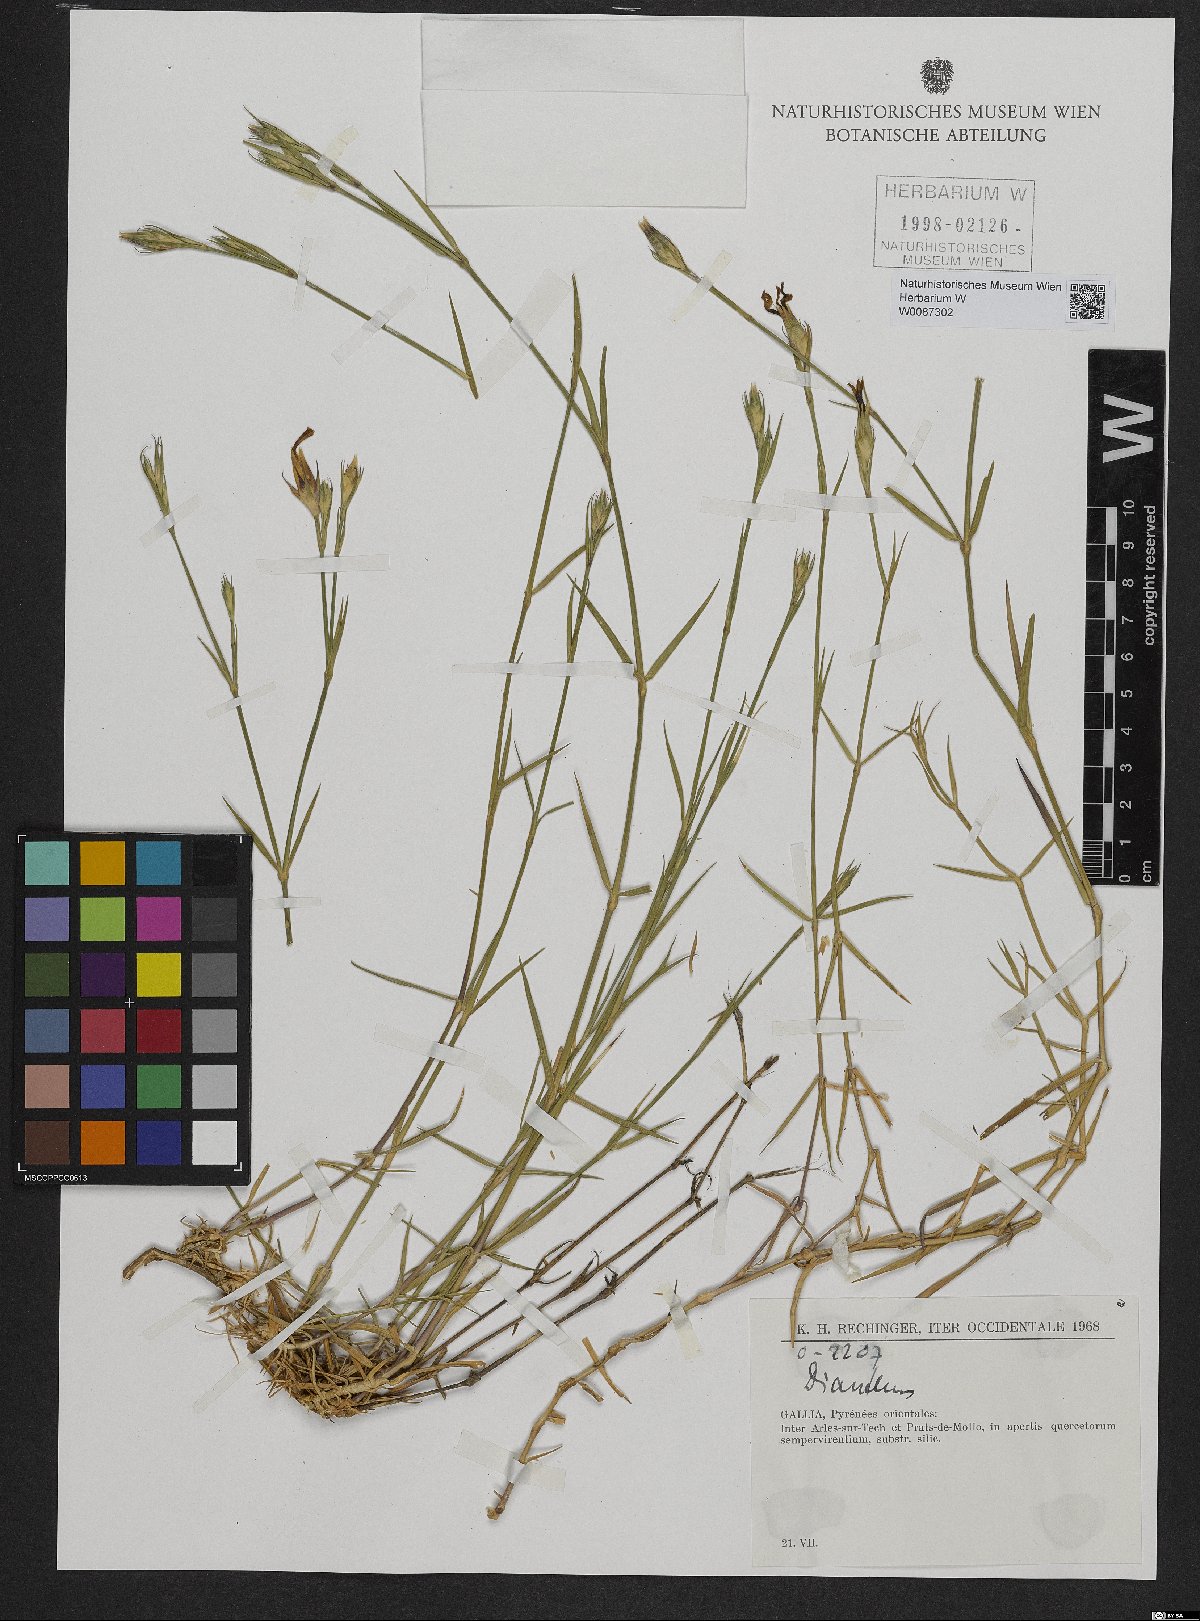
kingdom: Plantae
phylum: Tracheophyta
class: Magnoliopsida
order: Caryophyllales
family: Caryophyllaceae
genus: Dianthus
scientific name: Dianthus
